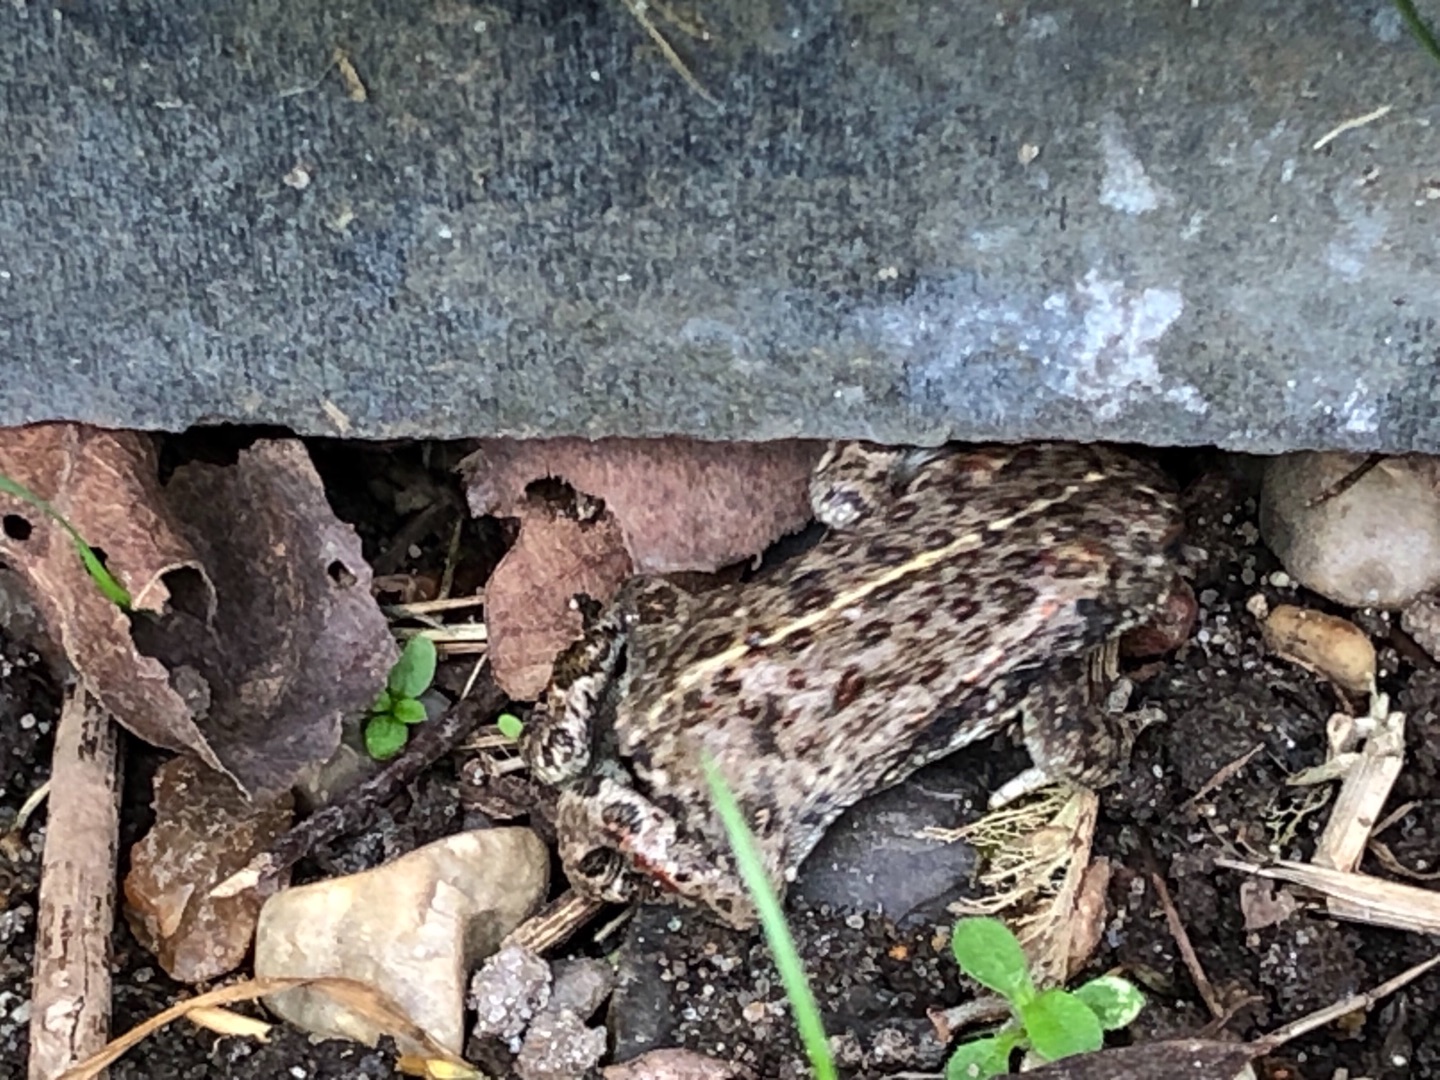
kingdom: Animalia
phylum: Chordata
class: Amphibia
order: Anura
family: Bufonidae
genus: Epidalea
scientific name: Epidalea calamita
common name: Strandtudse
